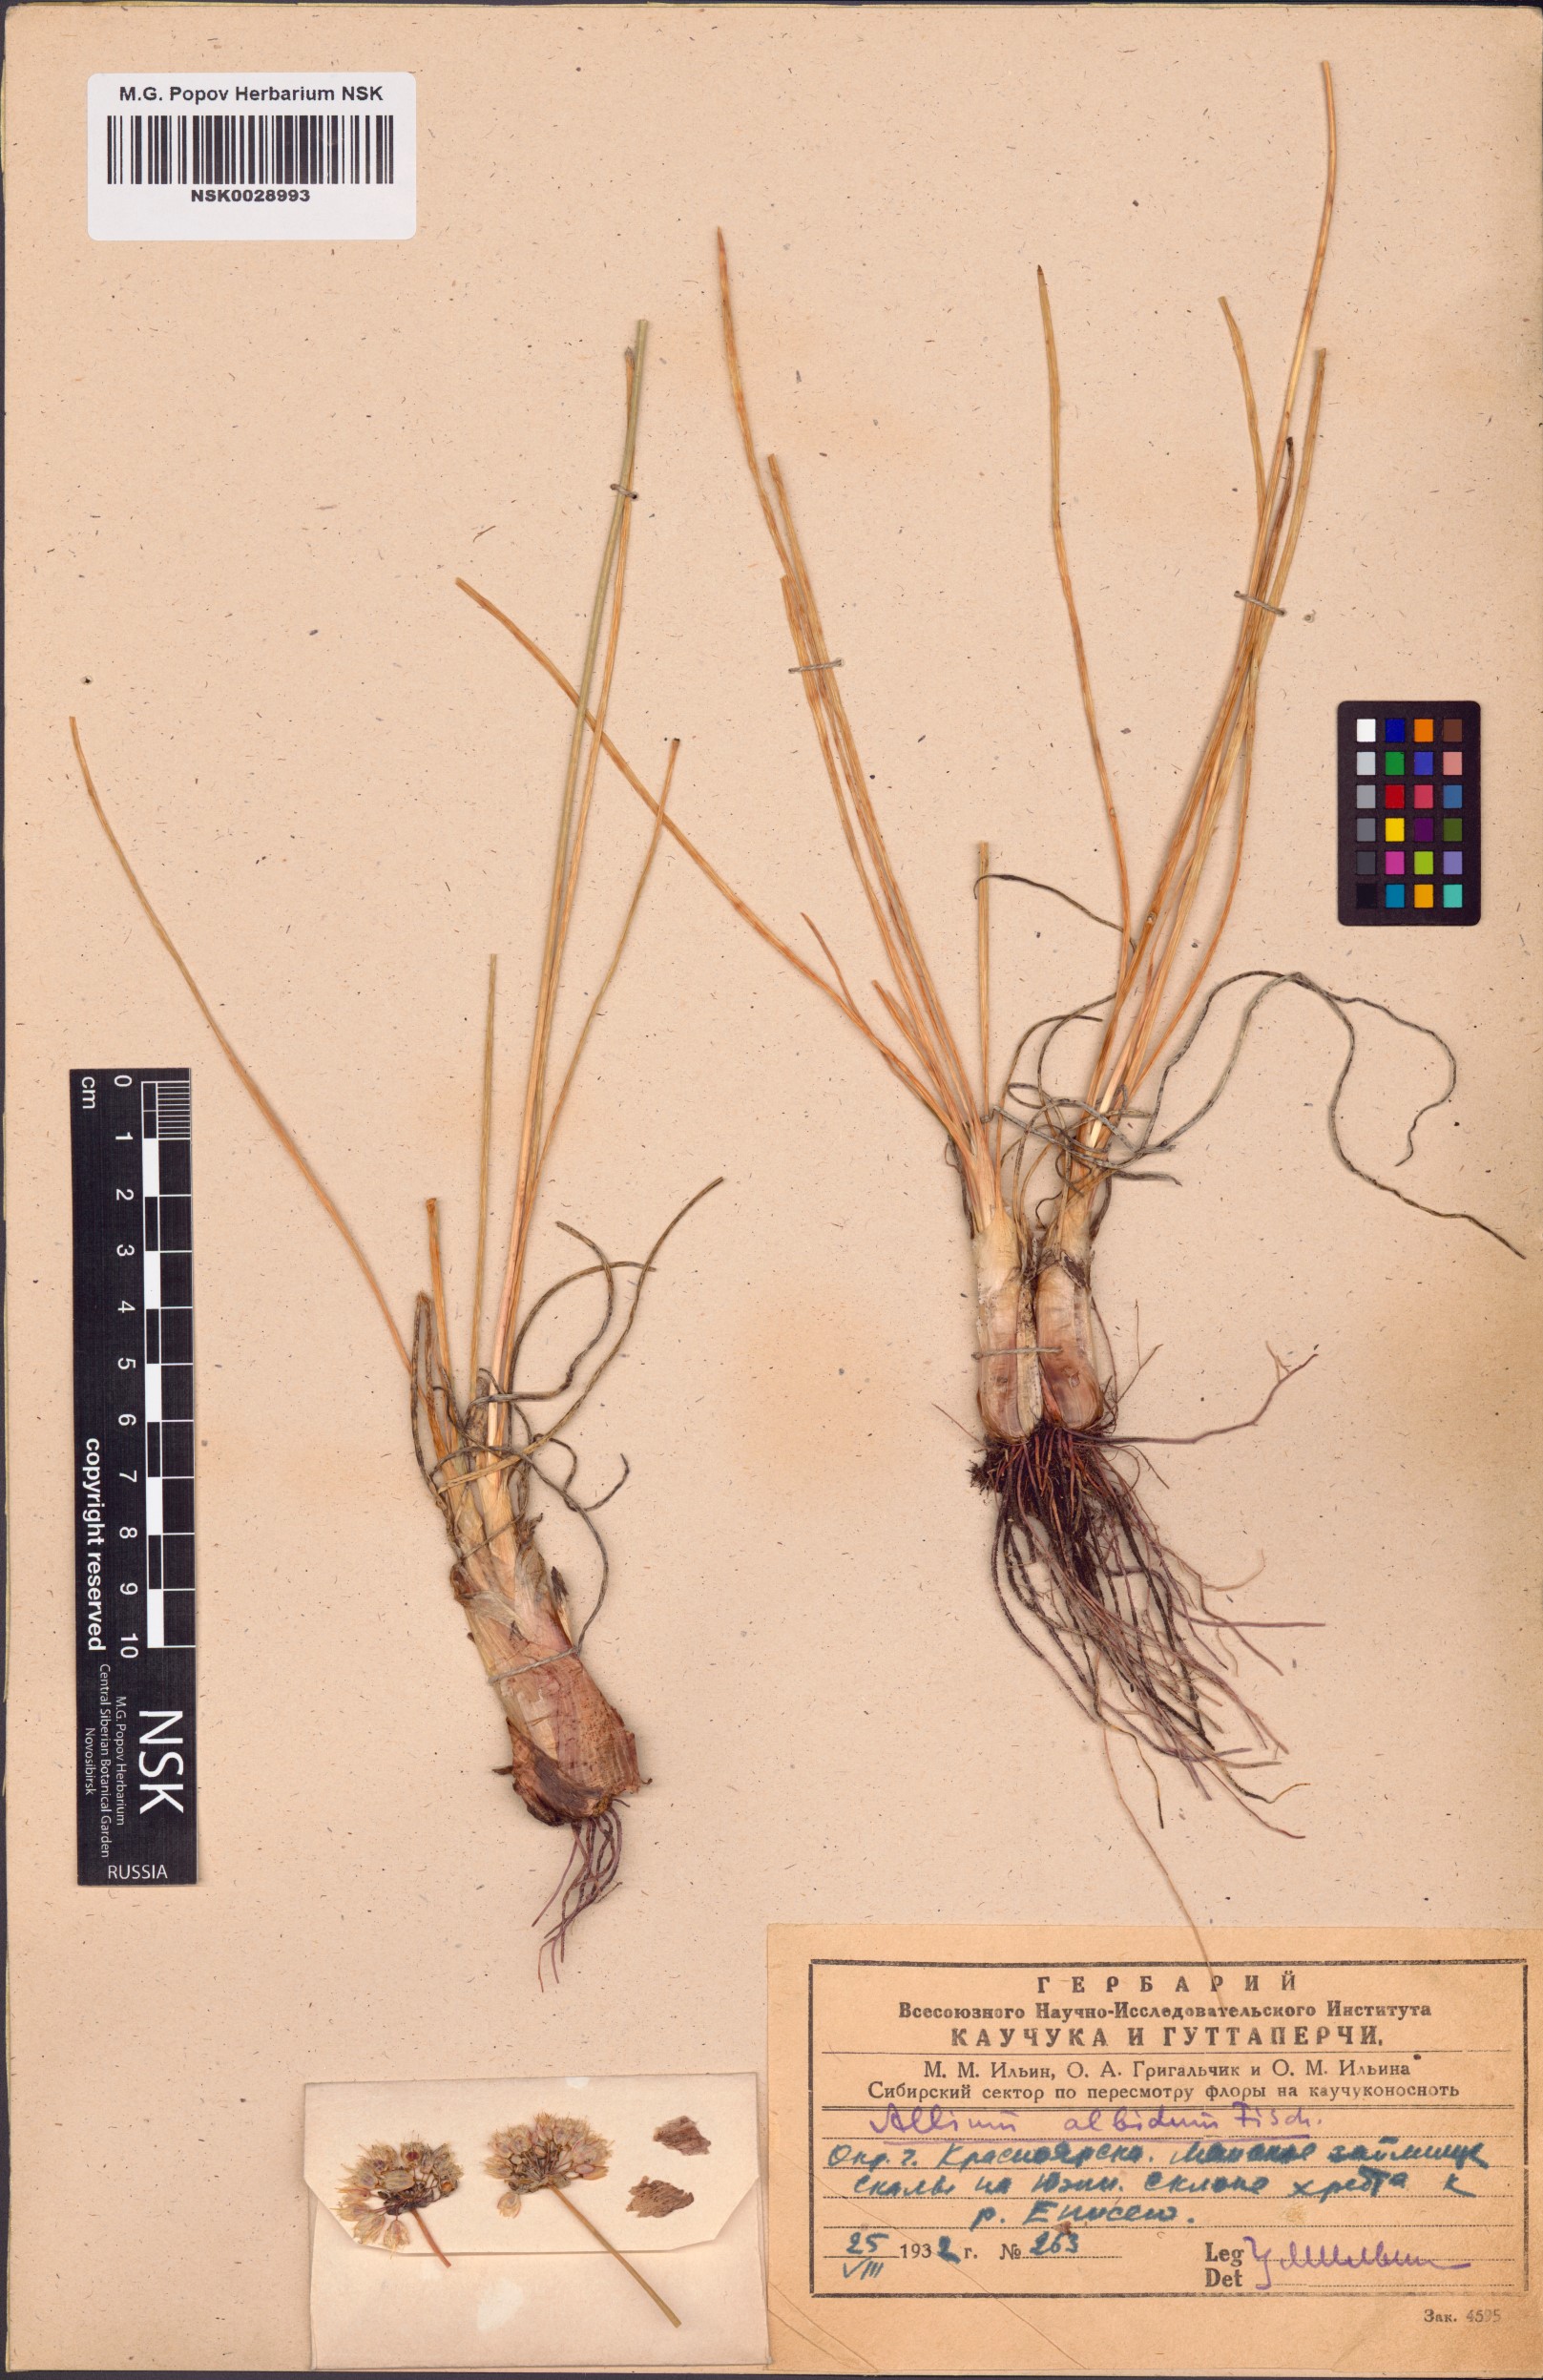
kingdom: Plantae
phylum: Tracheophyta
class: Liliopsida
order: Asparagales
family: Amaryllidaceae
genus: Allium
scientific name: Allium denudatum
